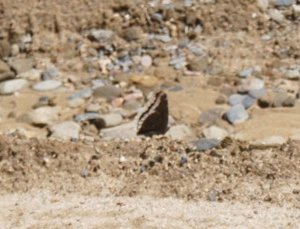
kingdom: Animalia
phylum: Arthropoda
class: Insecta
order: Lepidoptera
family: Nymphalidae
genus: Nymphalis
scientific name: Nymphalis antiopa
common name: Mourning Cloak
